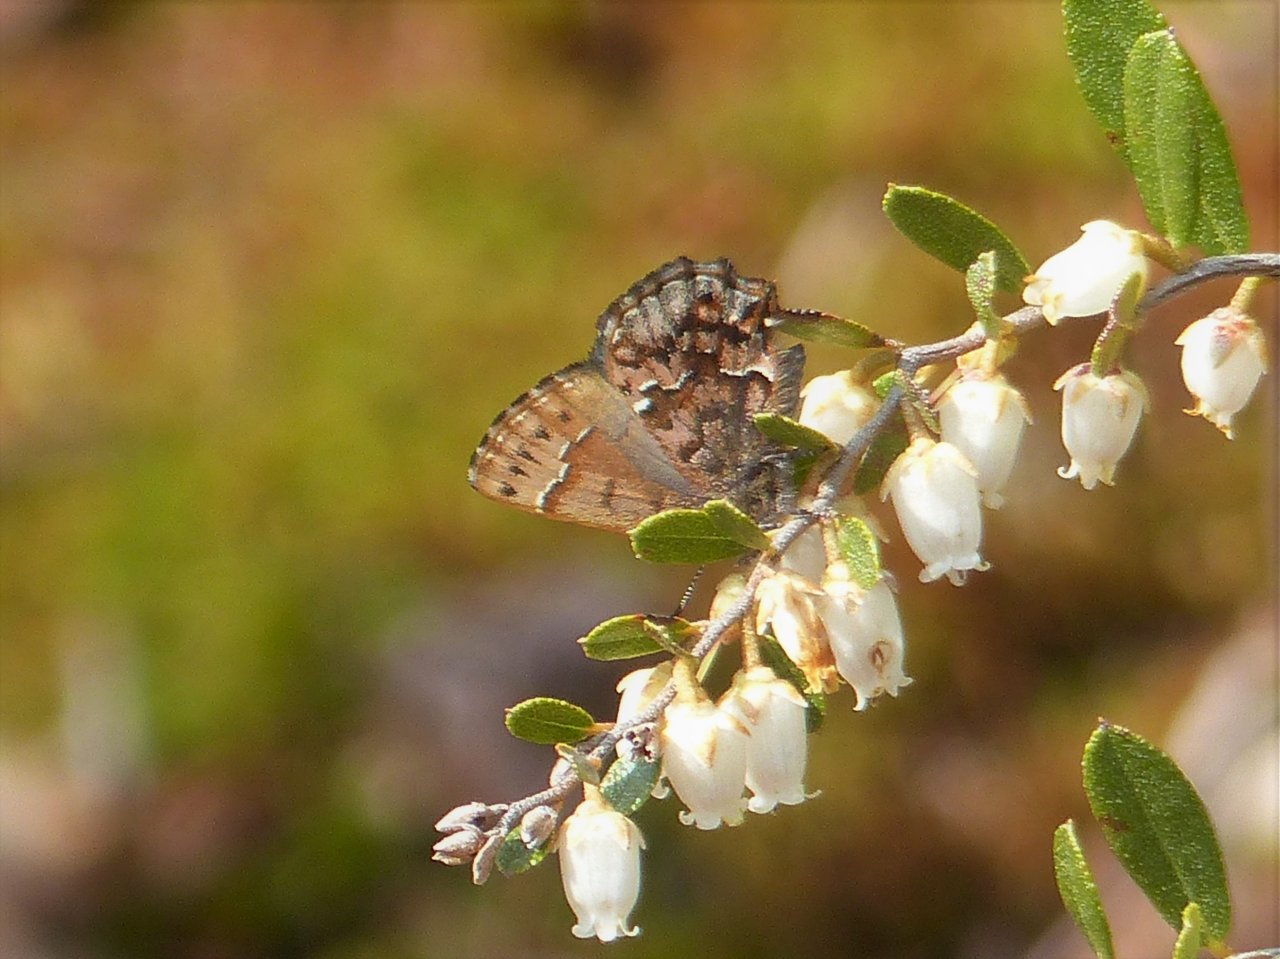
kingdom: Animalia
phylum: Arthropoda
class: Insecta
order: Lepidoptera
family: Lycaenidae
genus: Incisalia
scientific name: Incisalia lanoraieensis
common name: Bog Elfin
